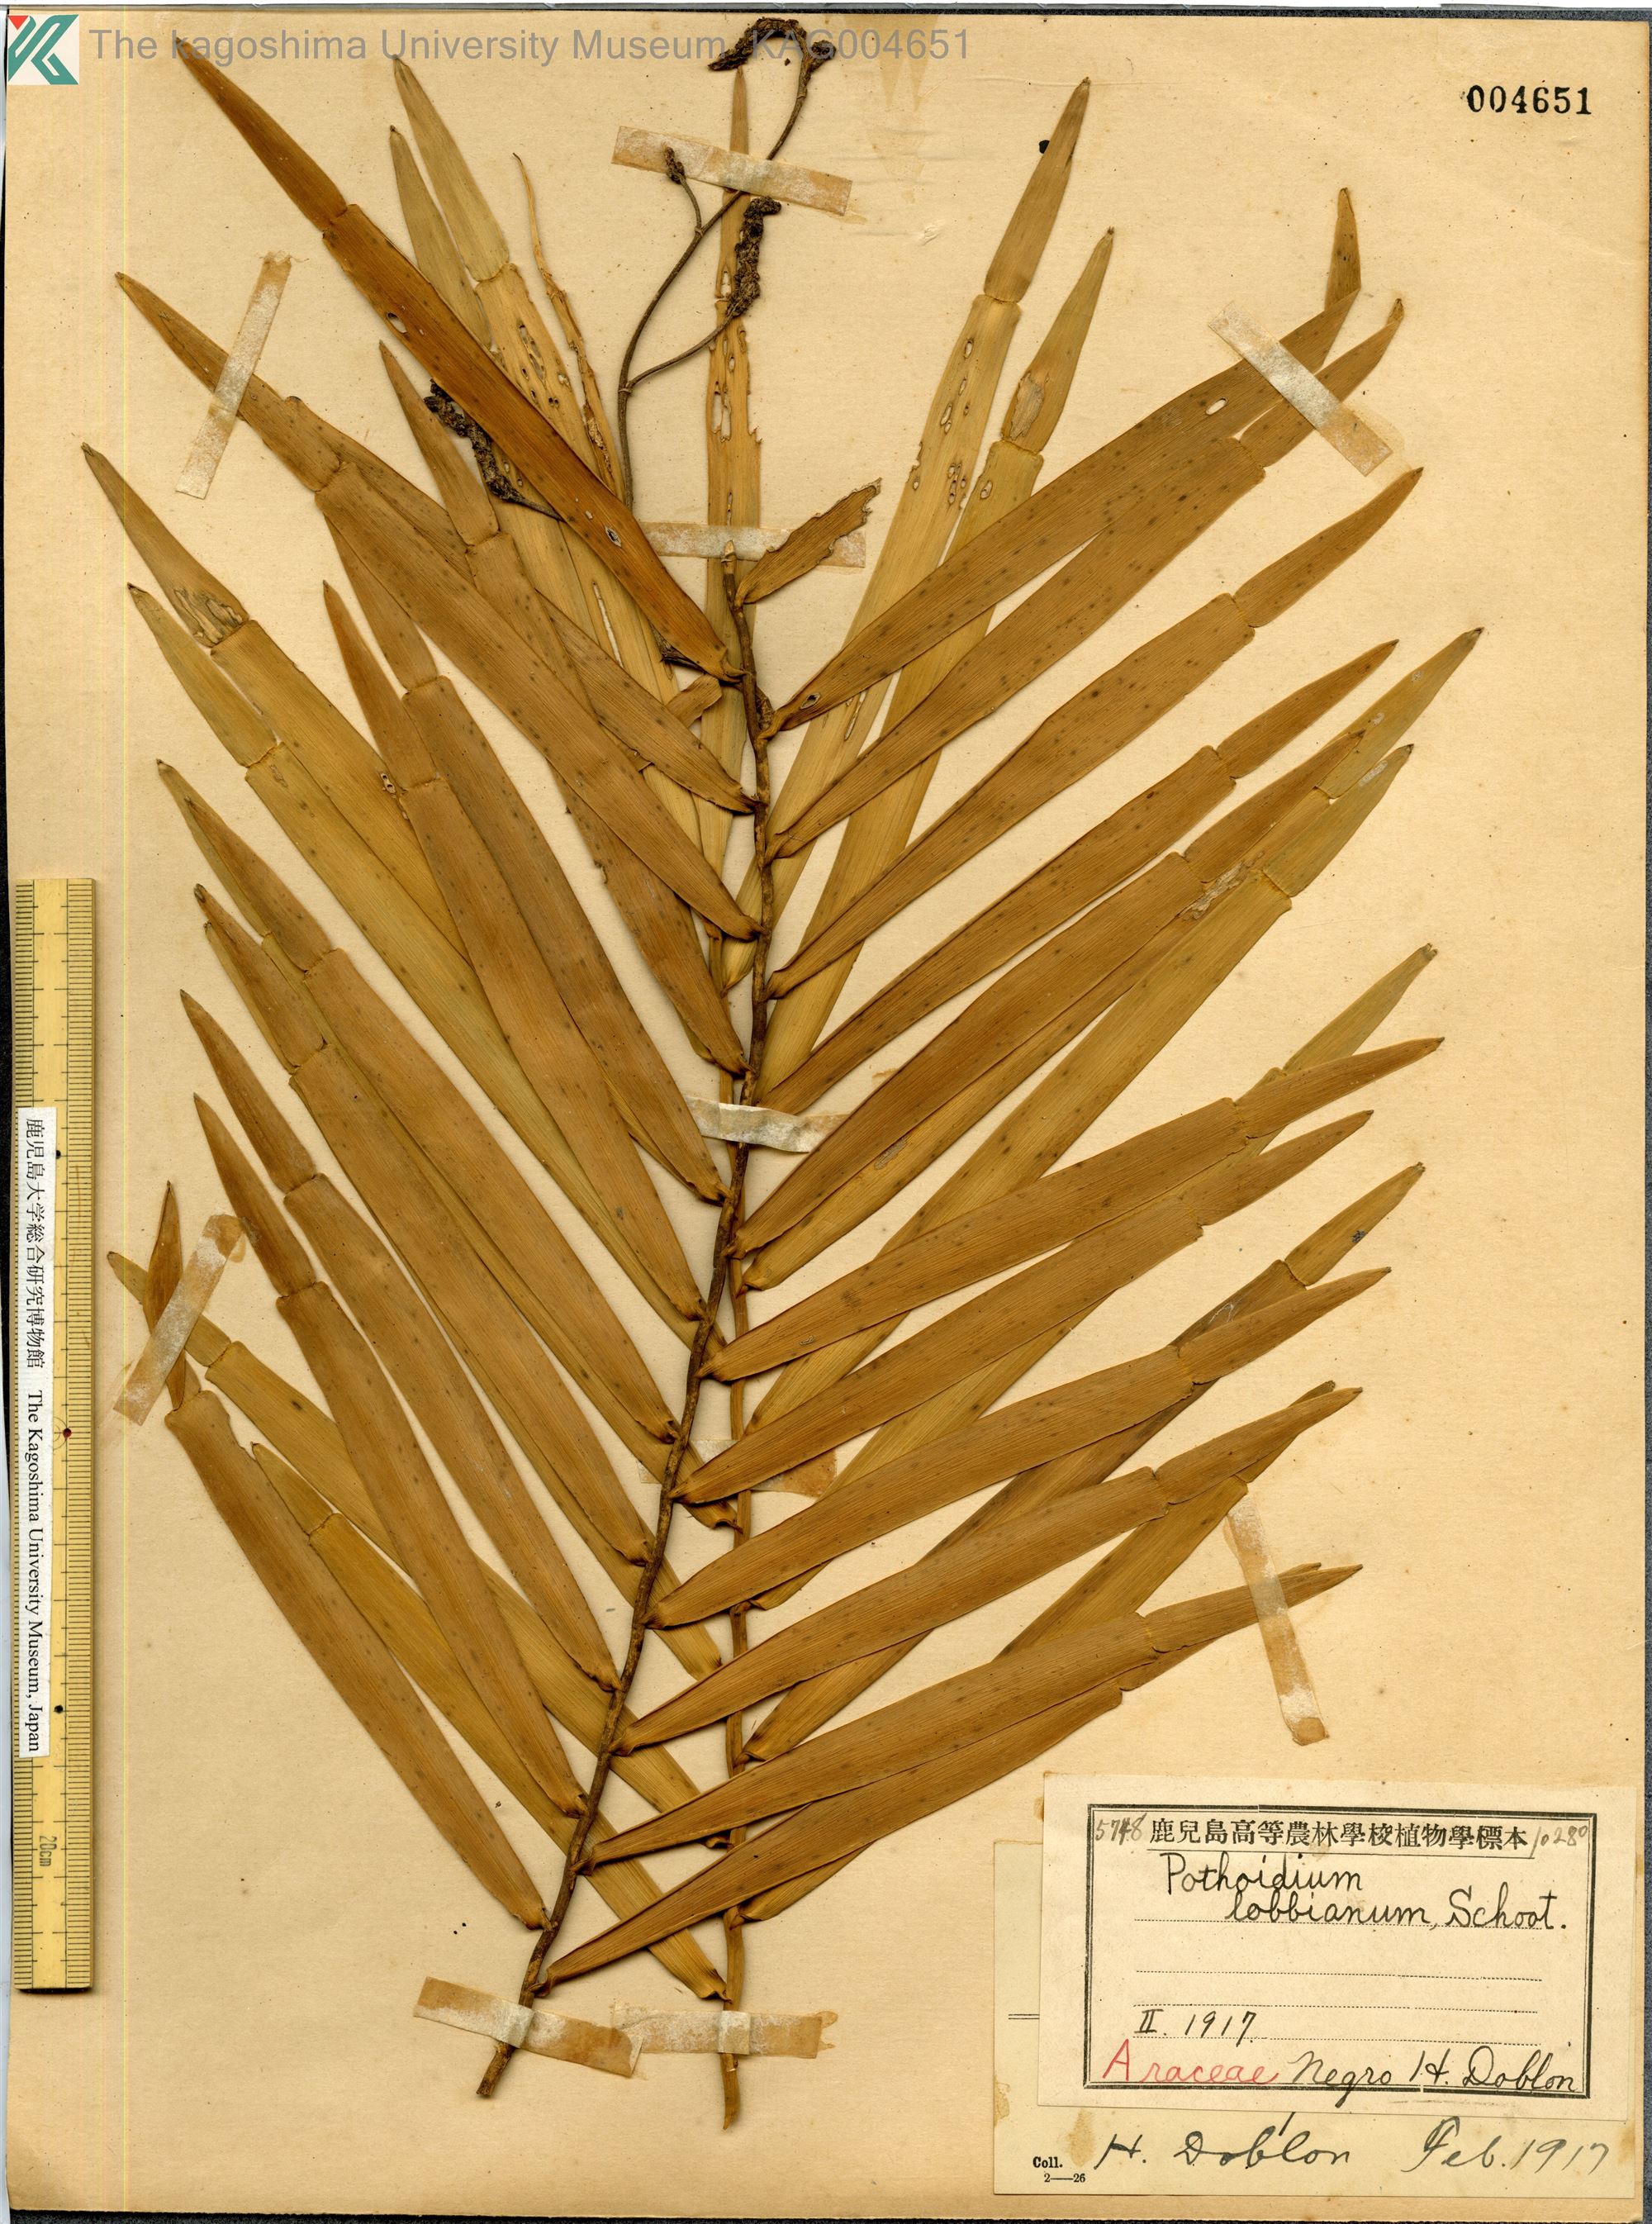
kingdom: Plantae
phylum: Tracheophyta
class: Liliopsida
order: Alismatales
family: Araceae
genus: Pothoidium
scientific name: Pothoidium lobbianum
